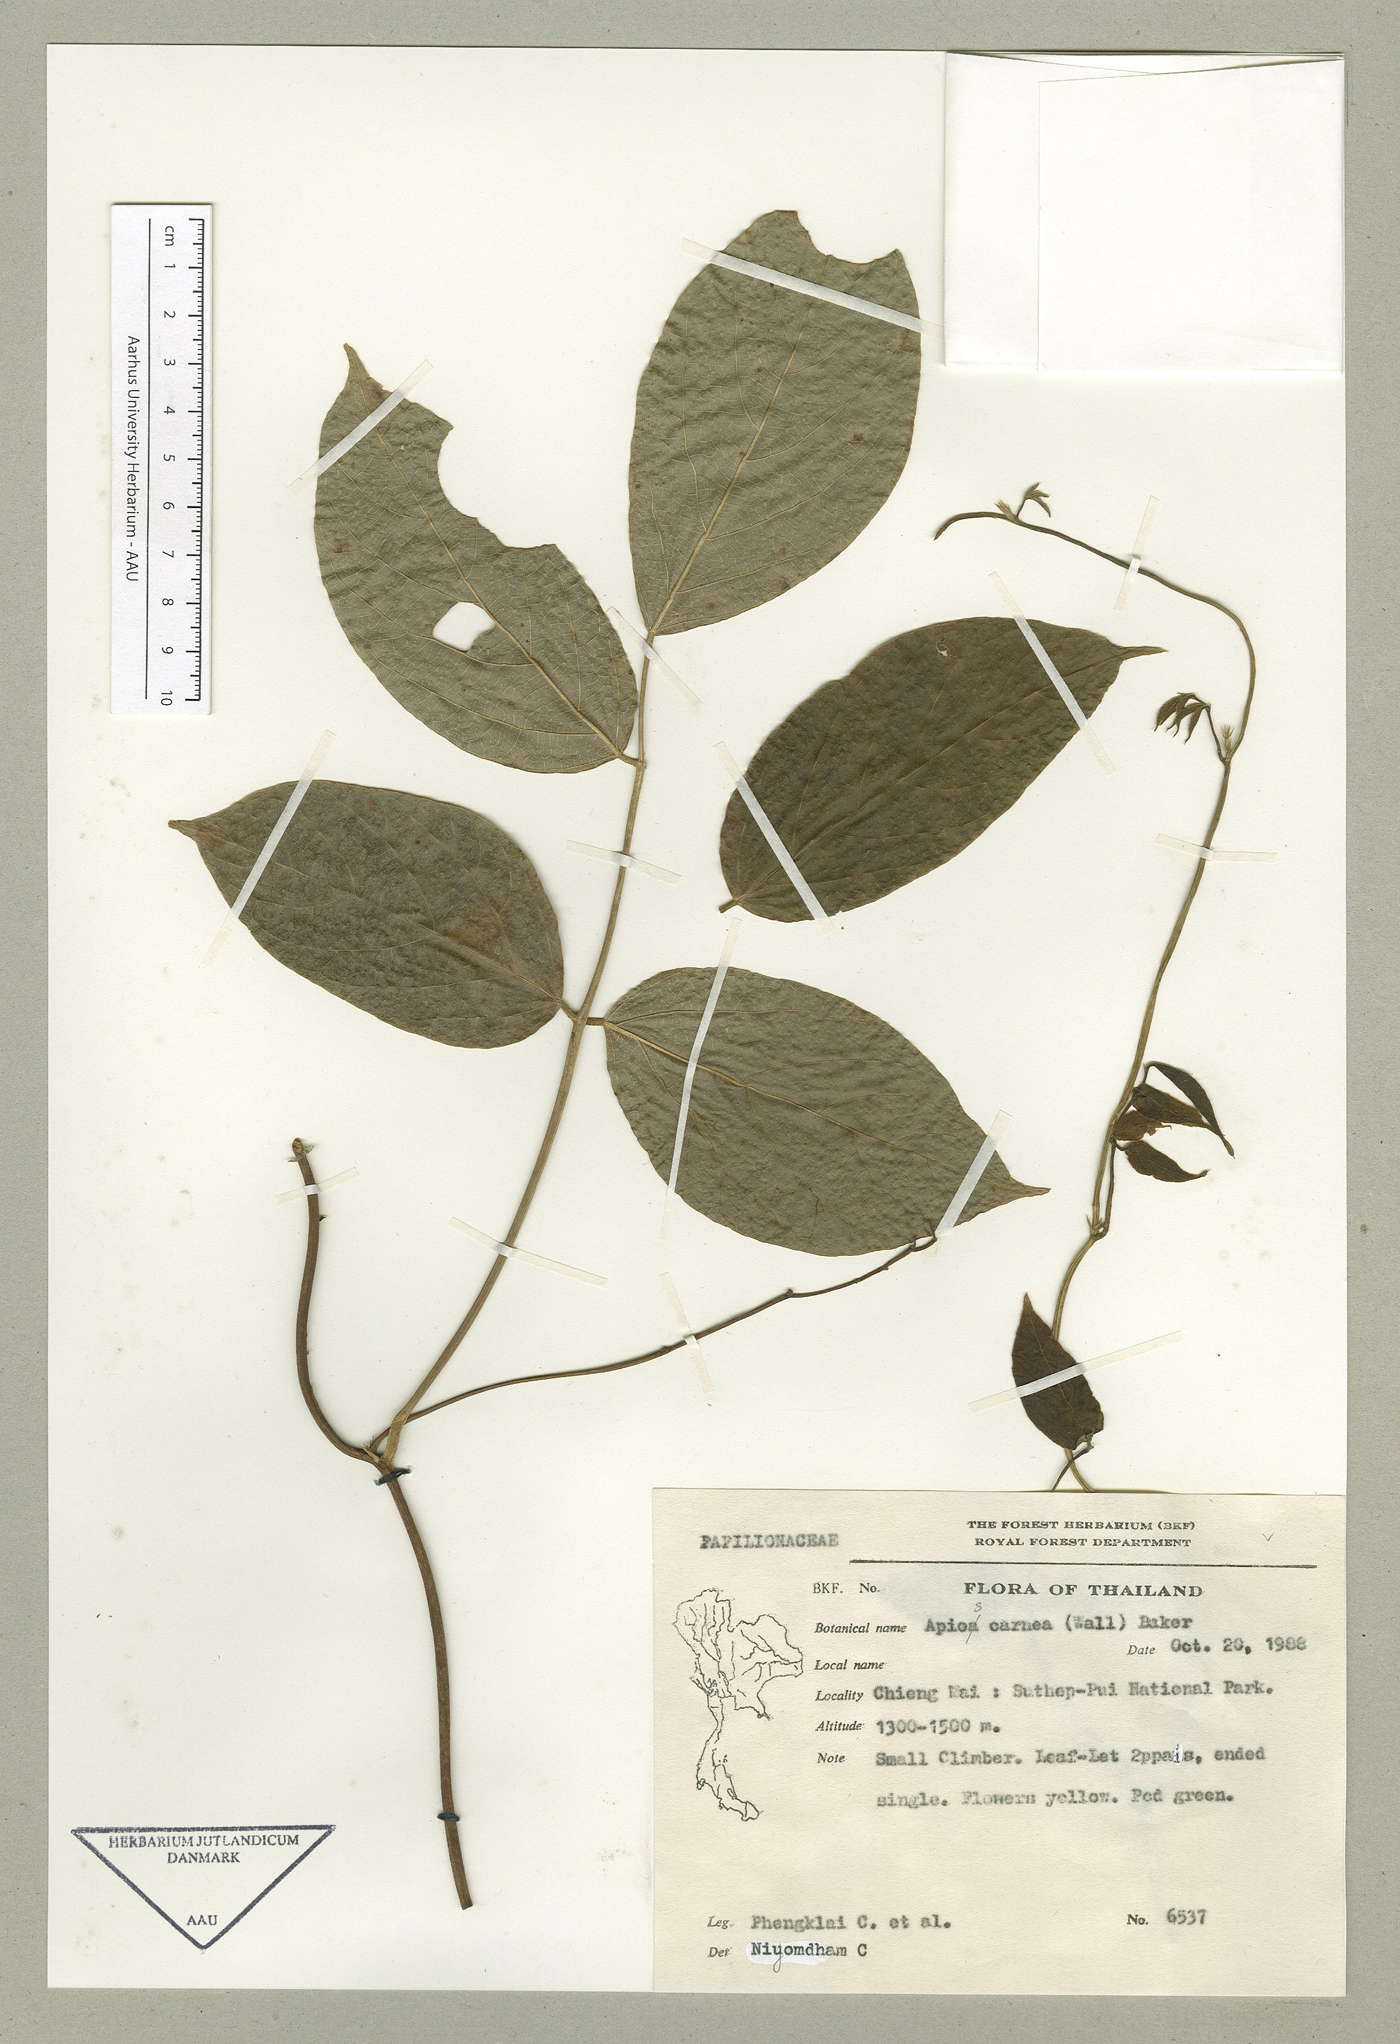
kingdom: Plantae
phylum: Tracheophyta
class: Magnoliopsida
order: Fabales
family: Fabaceae
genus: Apios
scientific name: Apios carnea
